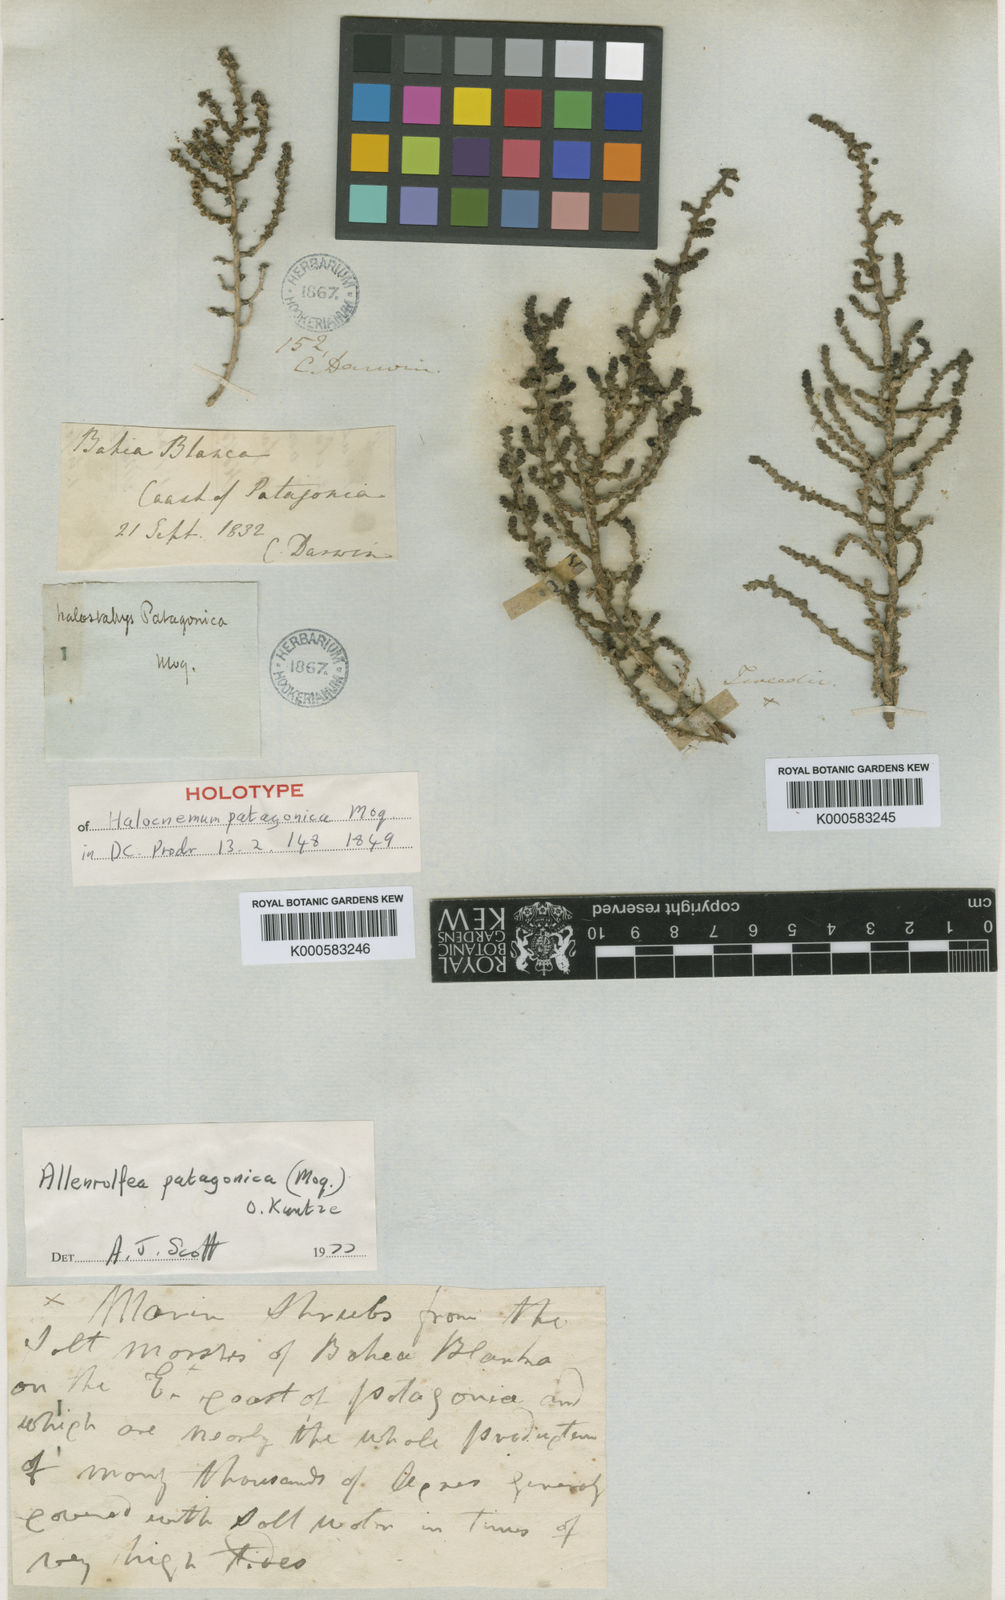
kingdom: Plantae
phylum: Tracheophyta
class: Magnoliopsida
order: Caryophyllales
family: Amaranthaceae
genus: Allenrolfea
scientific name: Allenrolfea patagonica
